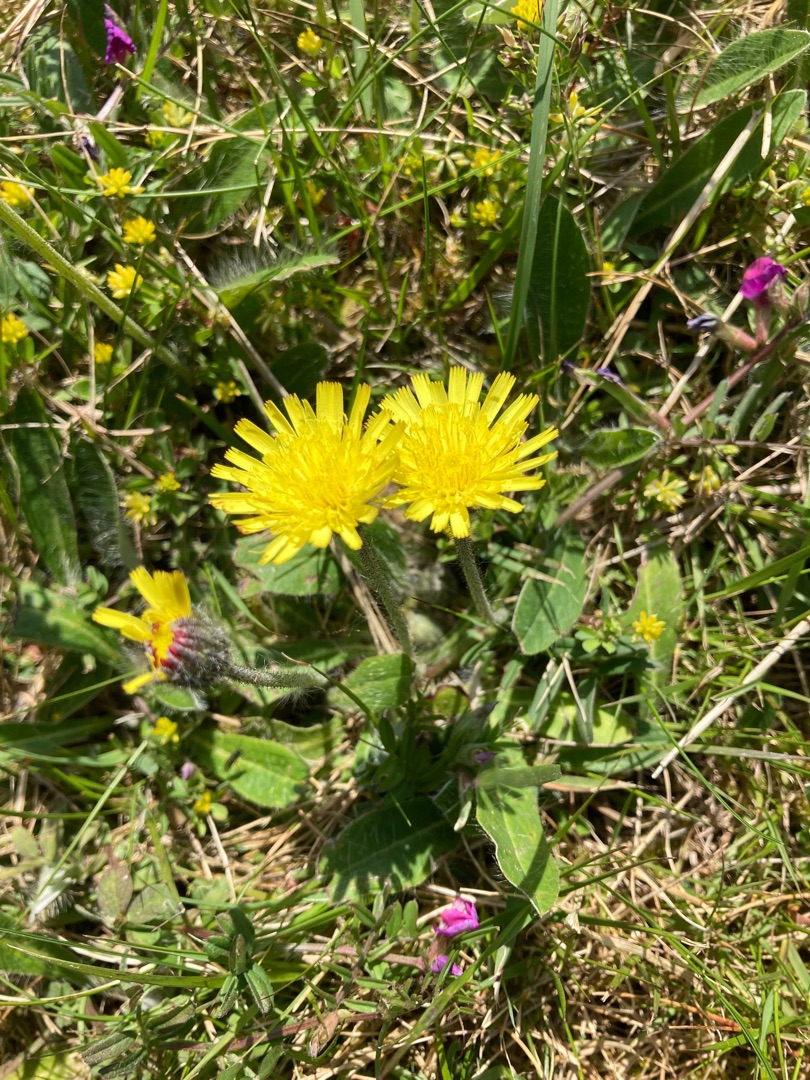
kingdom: Plantae
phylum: Tracheophyta
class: Magnoliopsida
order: Asterales
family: Asteraceae
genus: Pilosella
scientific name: Pilosella officinarum
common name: Håret høgeurt
